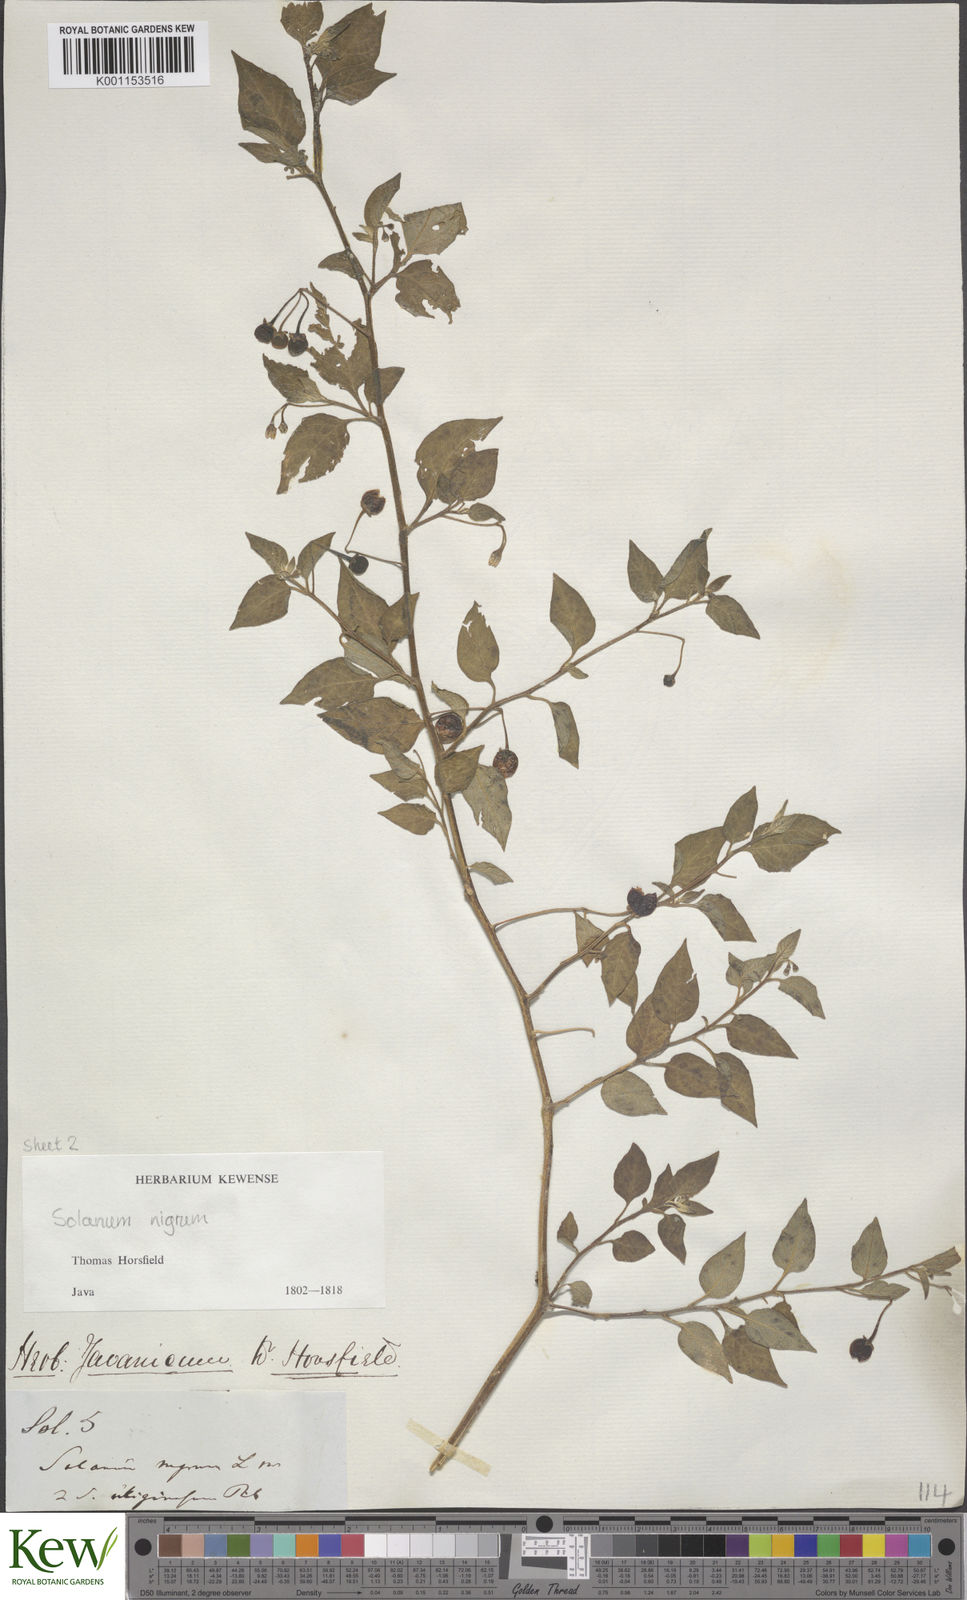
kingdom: Plantae
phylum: Tracheophyta
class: Magnoliopsida
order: Solanales
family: Solanaceae
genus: Solanum
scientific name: Solanum nigrum
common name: Black nightshade
